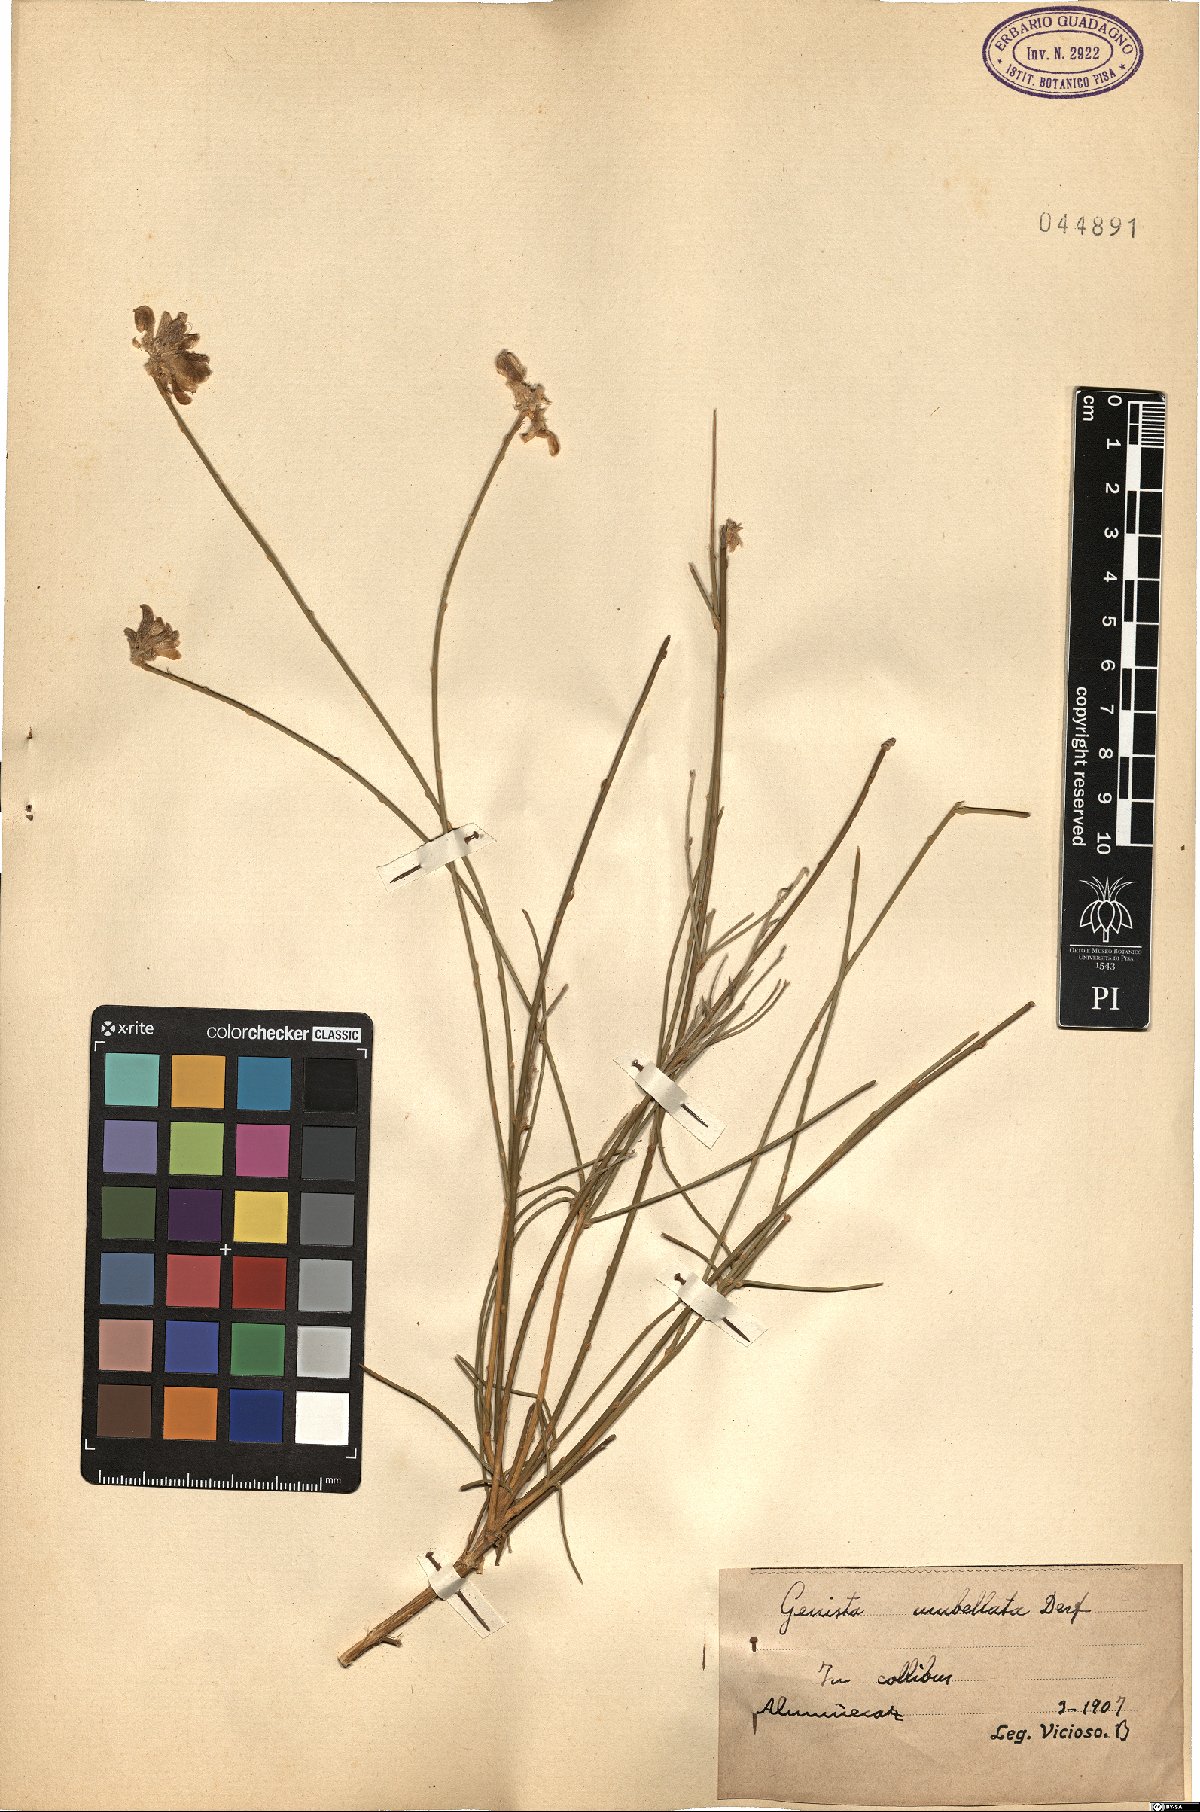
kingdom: Plantae
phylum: Tracheophyta
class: Magnoliopsida
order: Fabales
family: Fabaceae
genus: Genista
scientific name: Genista umbellata
